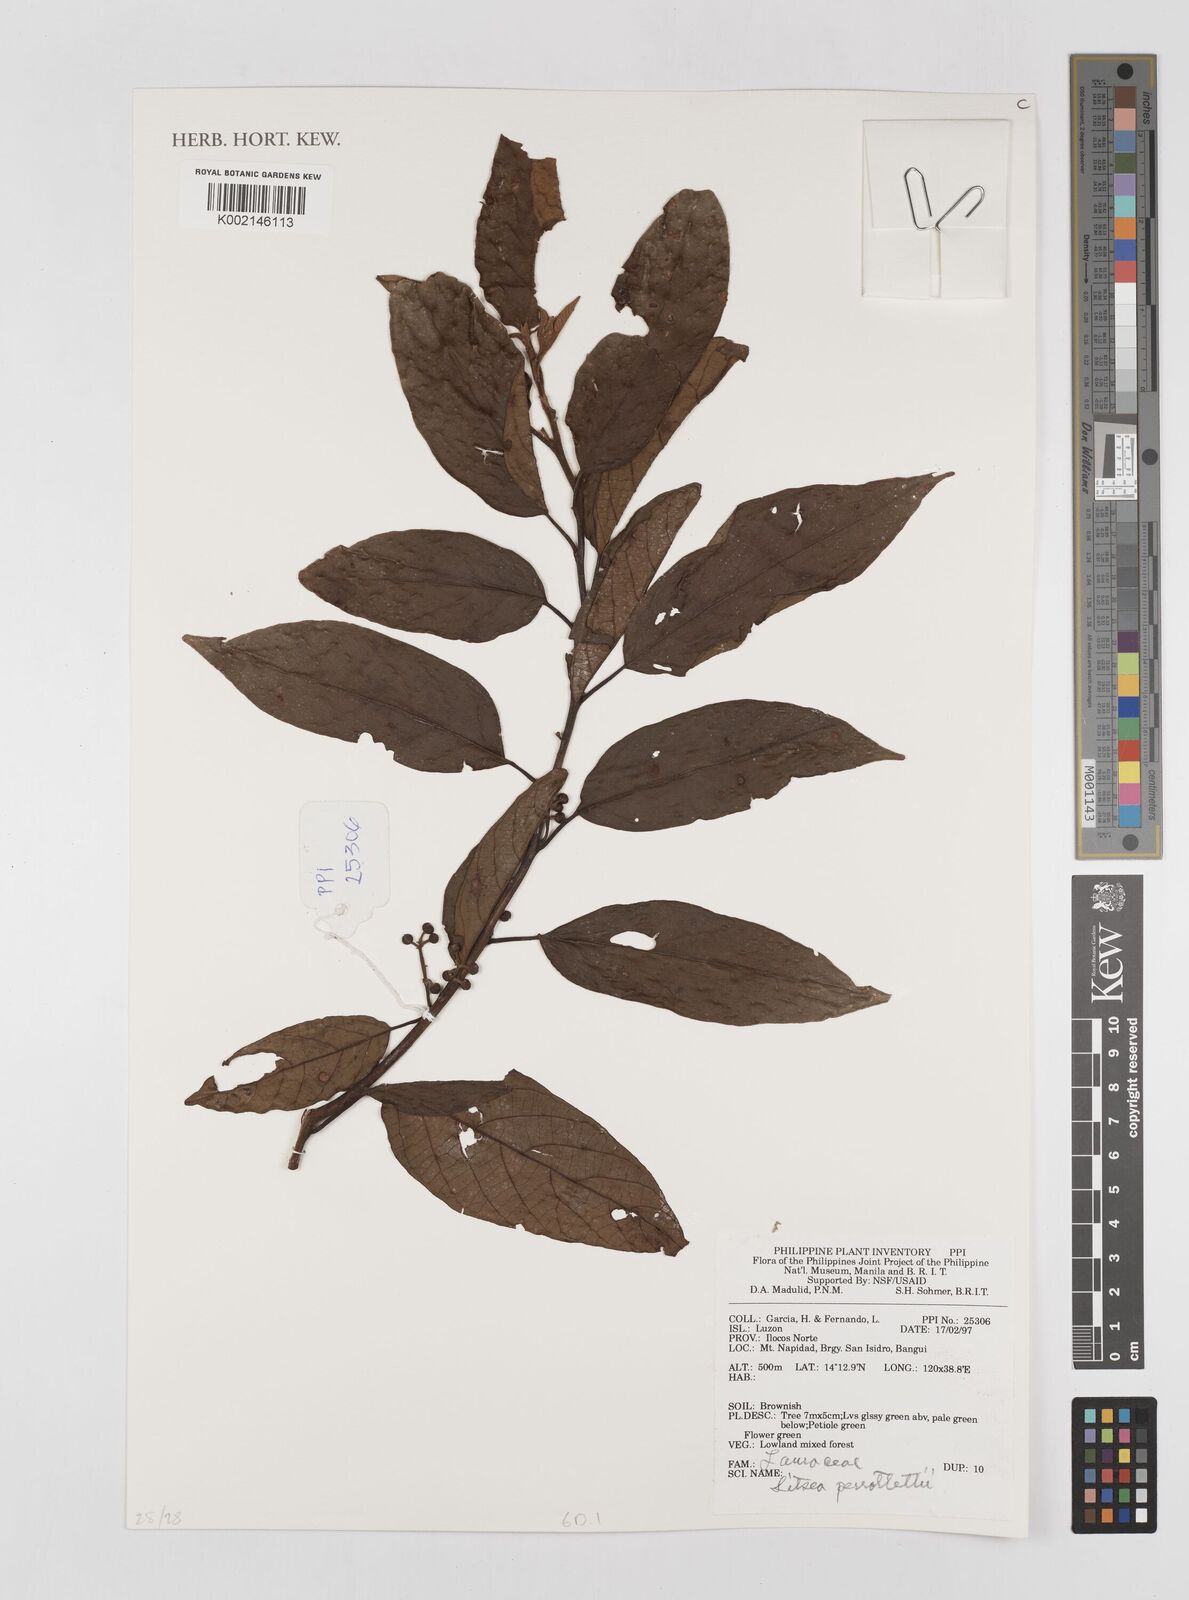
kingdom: Plantae
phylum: Tracheophyta
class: Magnoliopsida
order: Laurales
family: Lauraceae
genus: Litsea
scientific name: Litsea cordata
